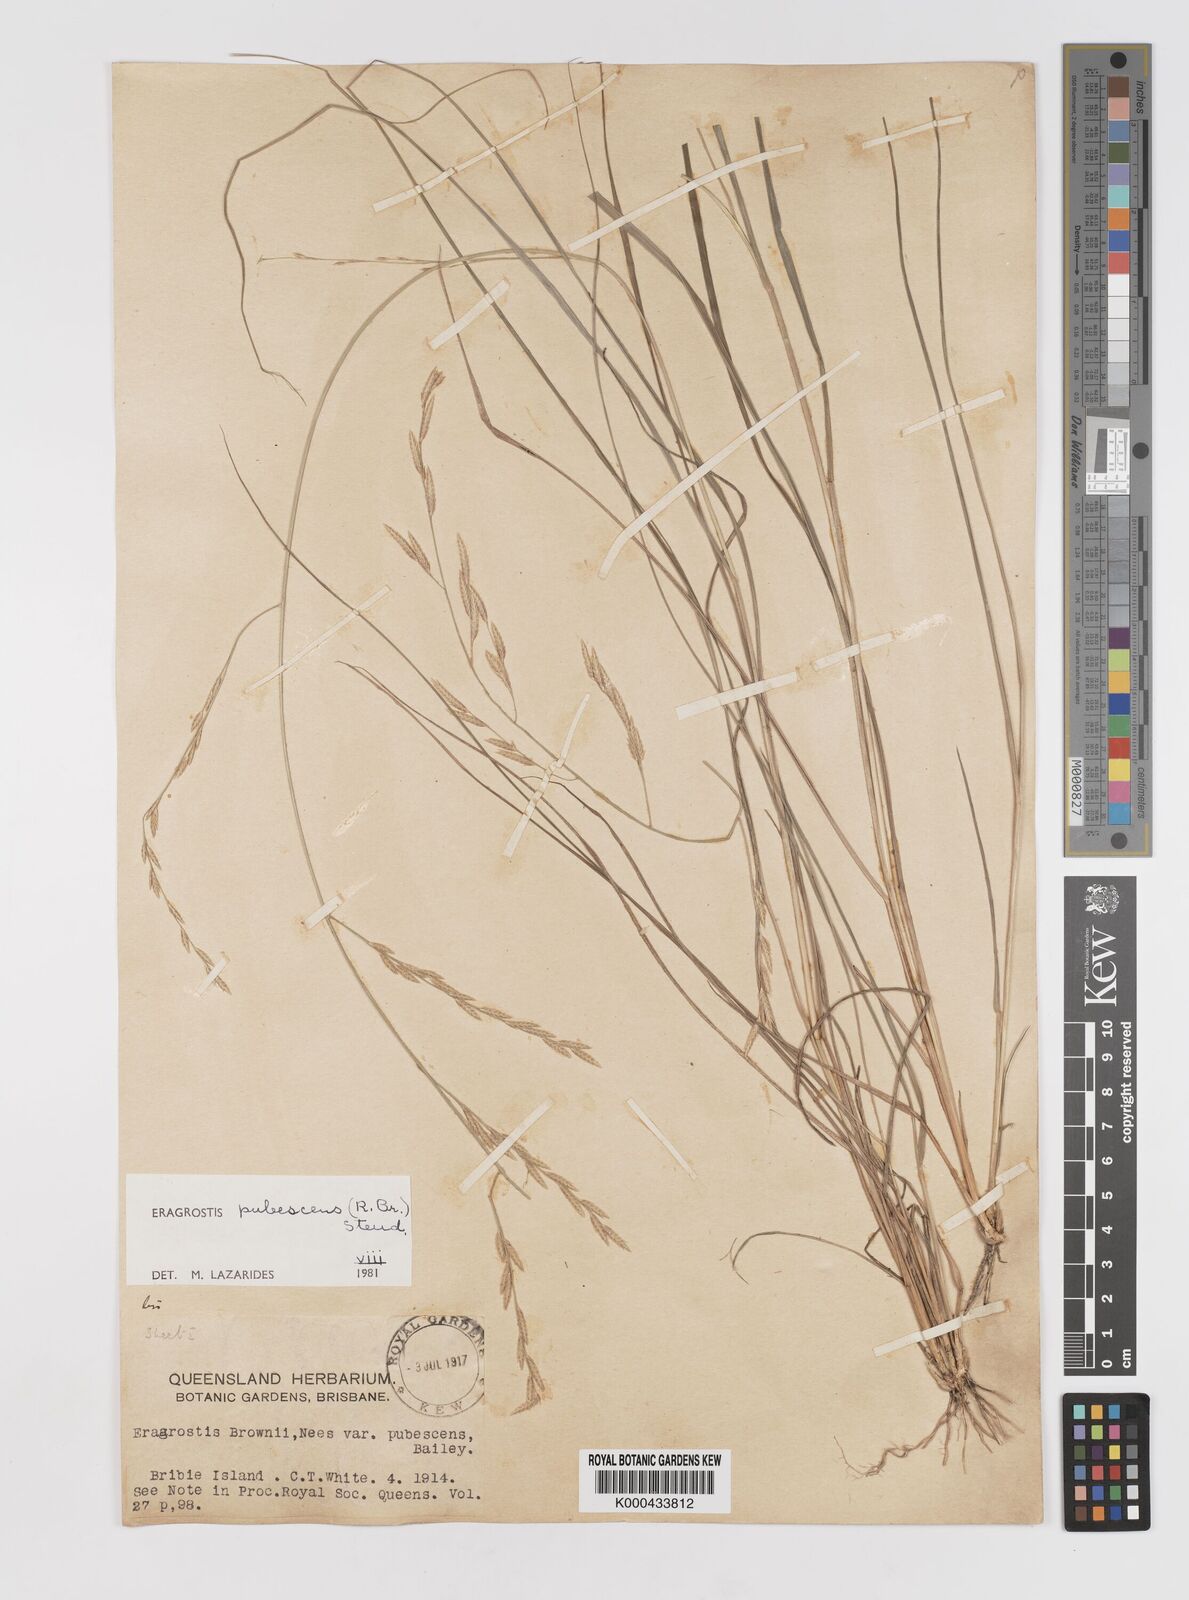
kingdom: Plantae
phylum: Tracheophyta
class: Liliopsida
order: Poales
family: Poaceae
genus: Eragrostis
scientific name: Eragrostis pubescens
